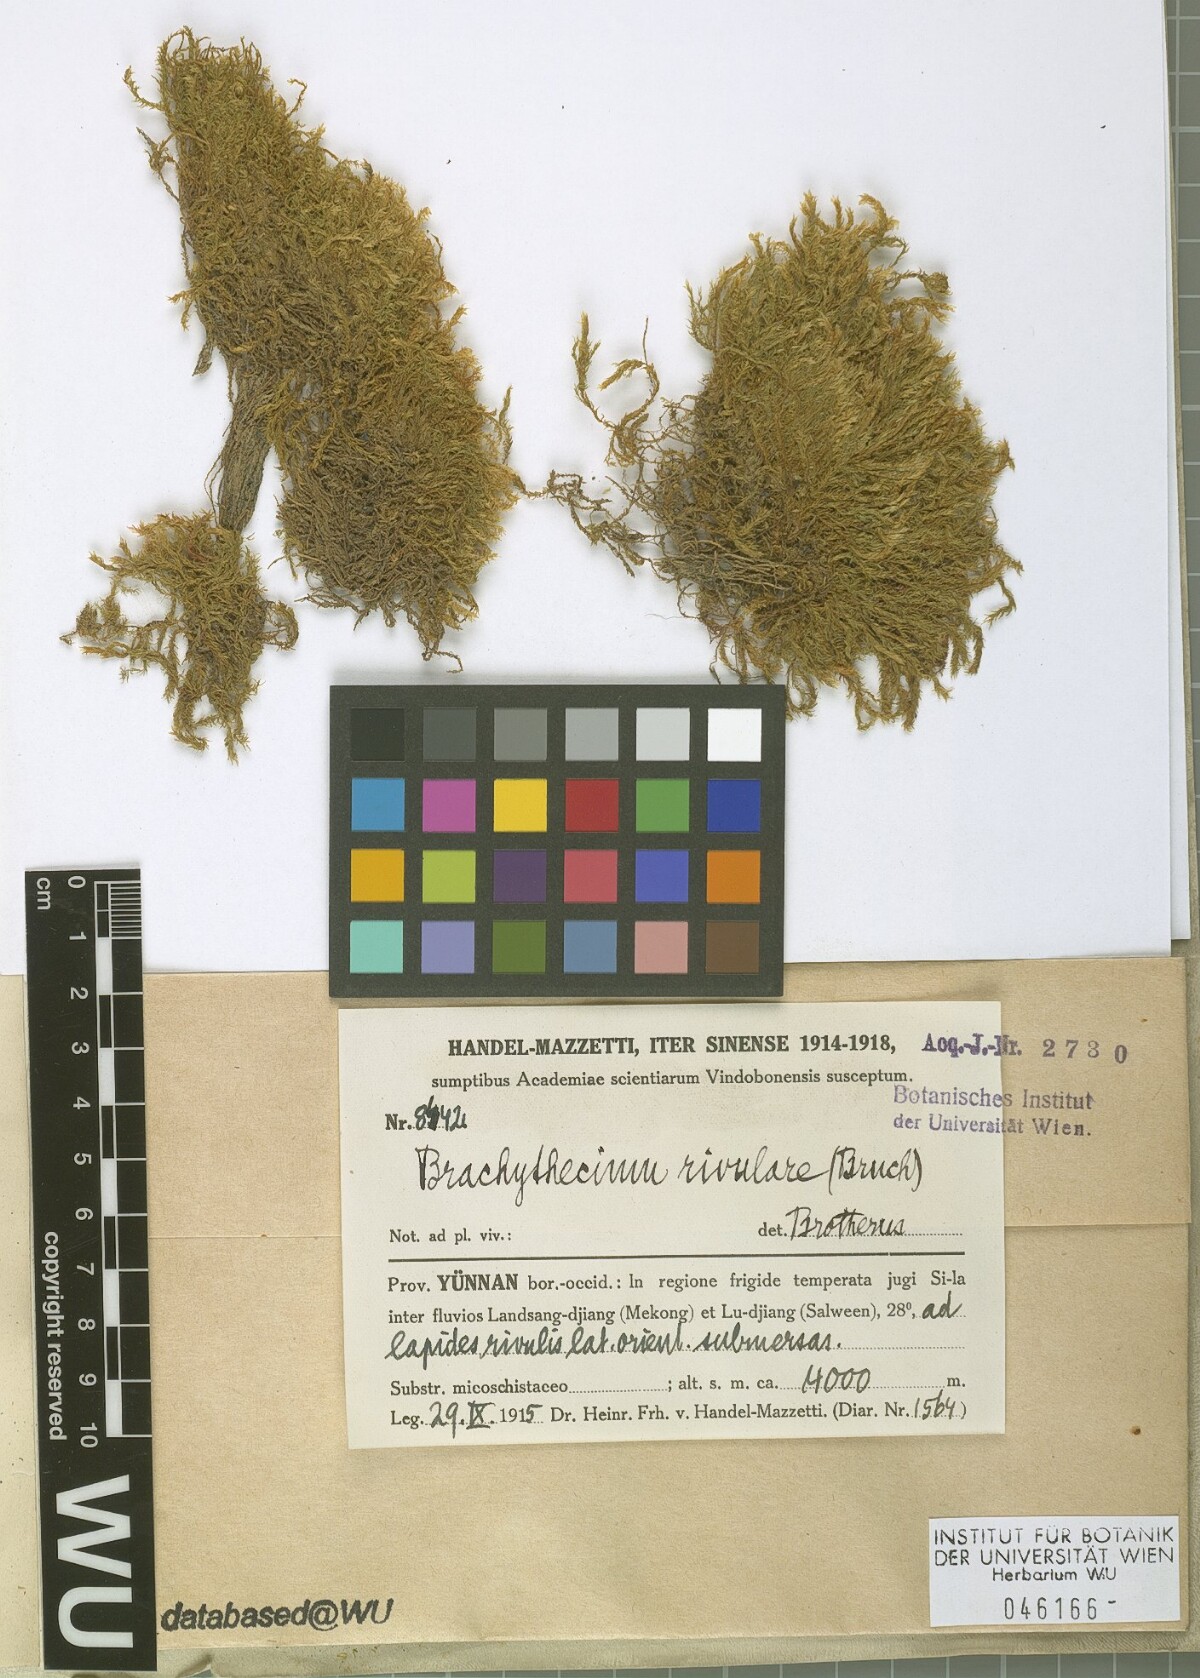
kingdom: Plantae
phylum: Bryophyta
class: Bryopsida
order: Hypnales
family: Brachytheciaceae
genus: Brachythecium
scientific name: Brachythecium rivulare
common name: River ragged moss
